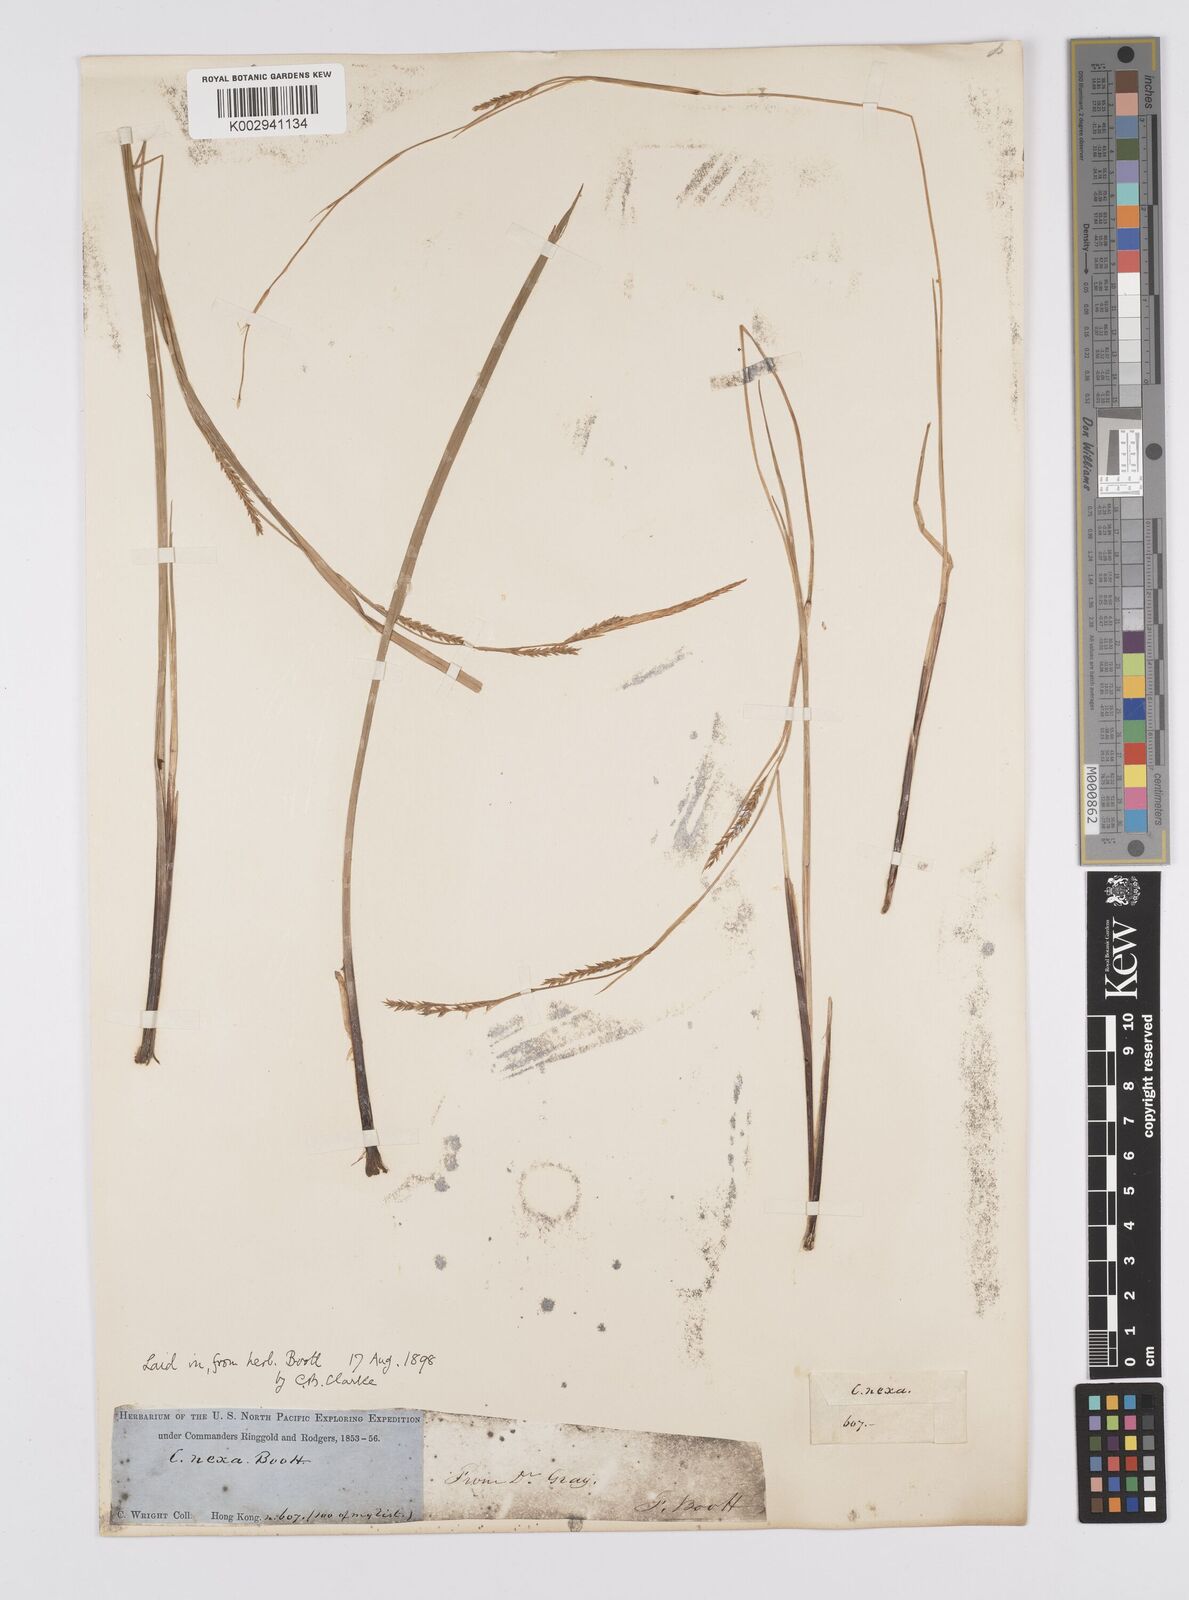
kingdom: Plantae
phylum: Tracheophyta
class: Liliopsida
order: Poales
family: Cyperaceae
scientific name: Cyperaceae
